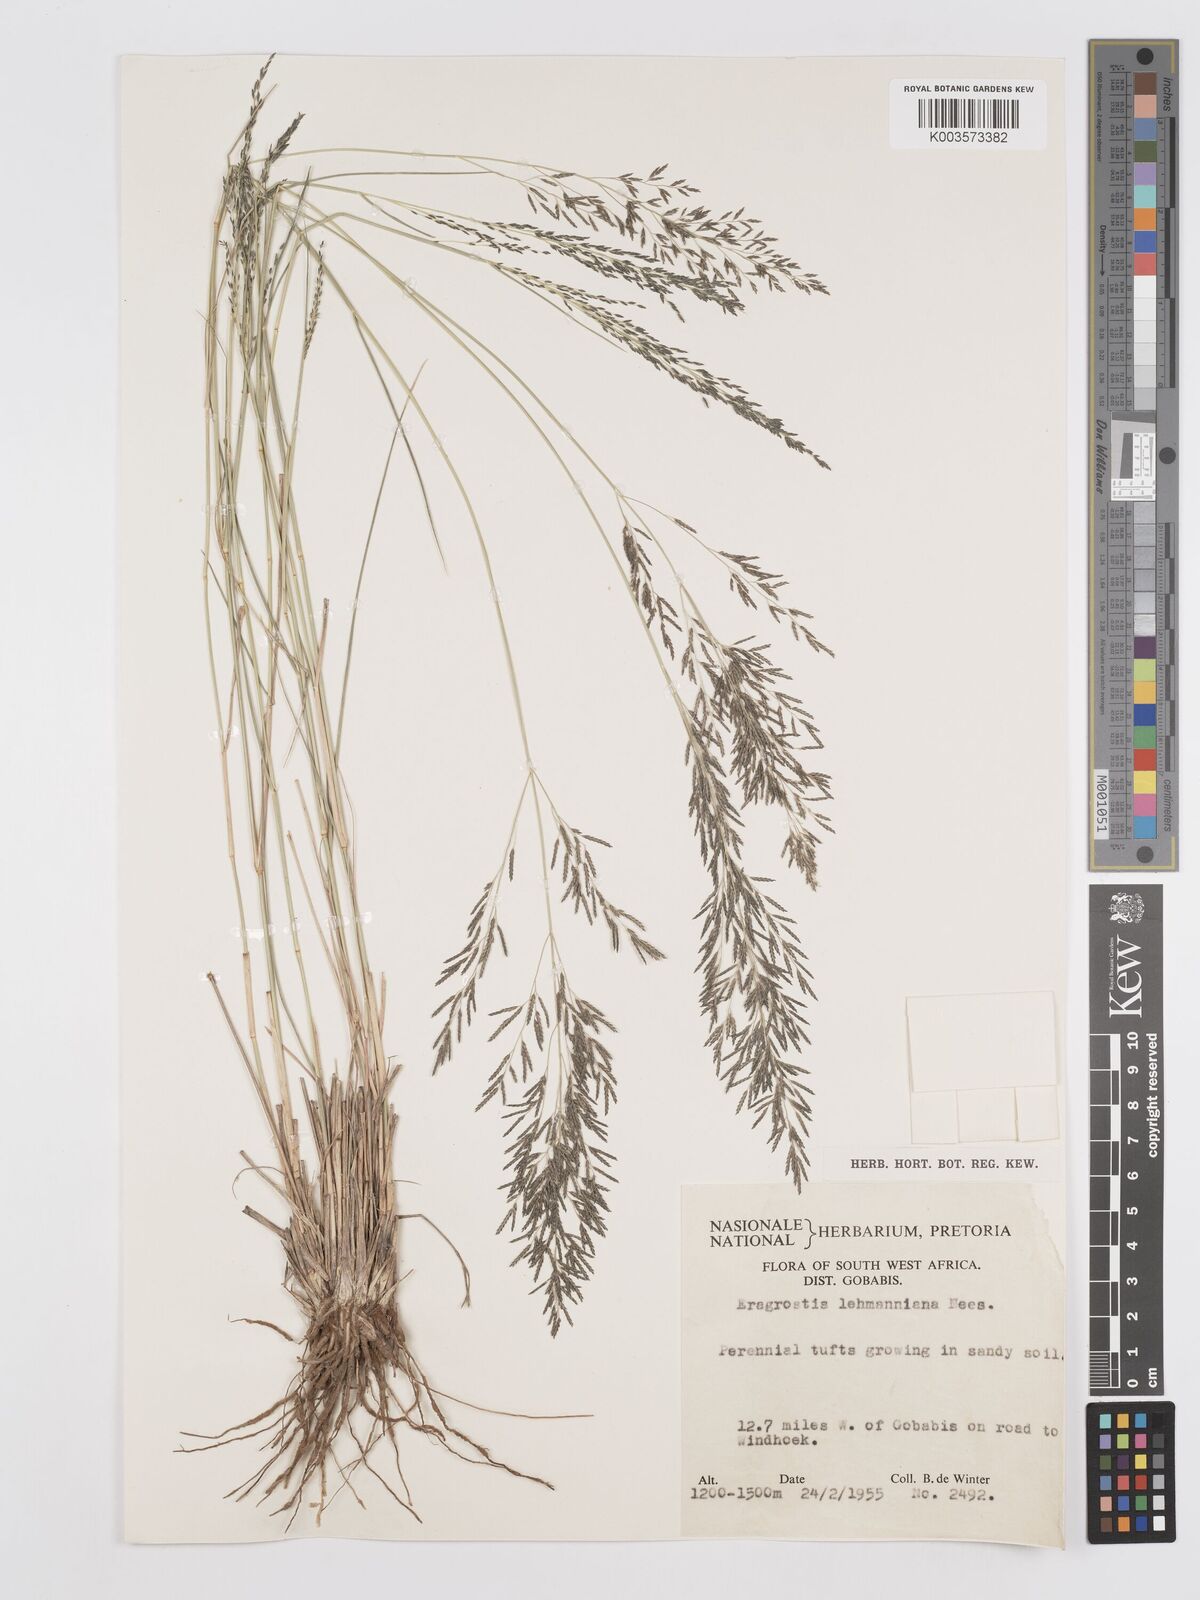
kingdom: Plantae
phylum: Tracheophyta
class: Liliopsida
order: Poales
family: Poaceae
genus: Eragrostis
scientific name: Eragrostis lehmanniana
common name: Lehmann lovegrass
